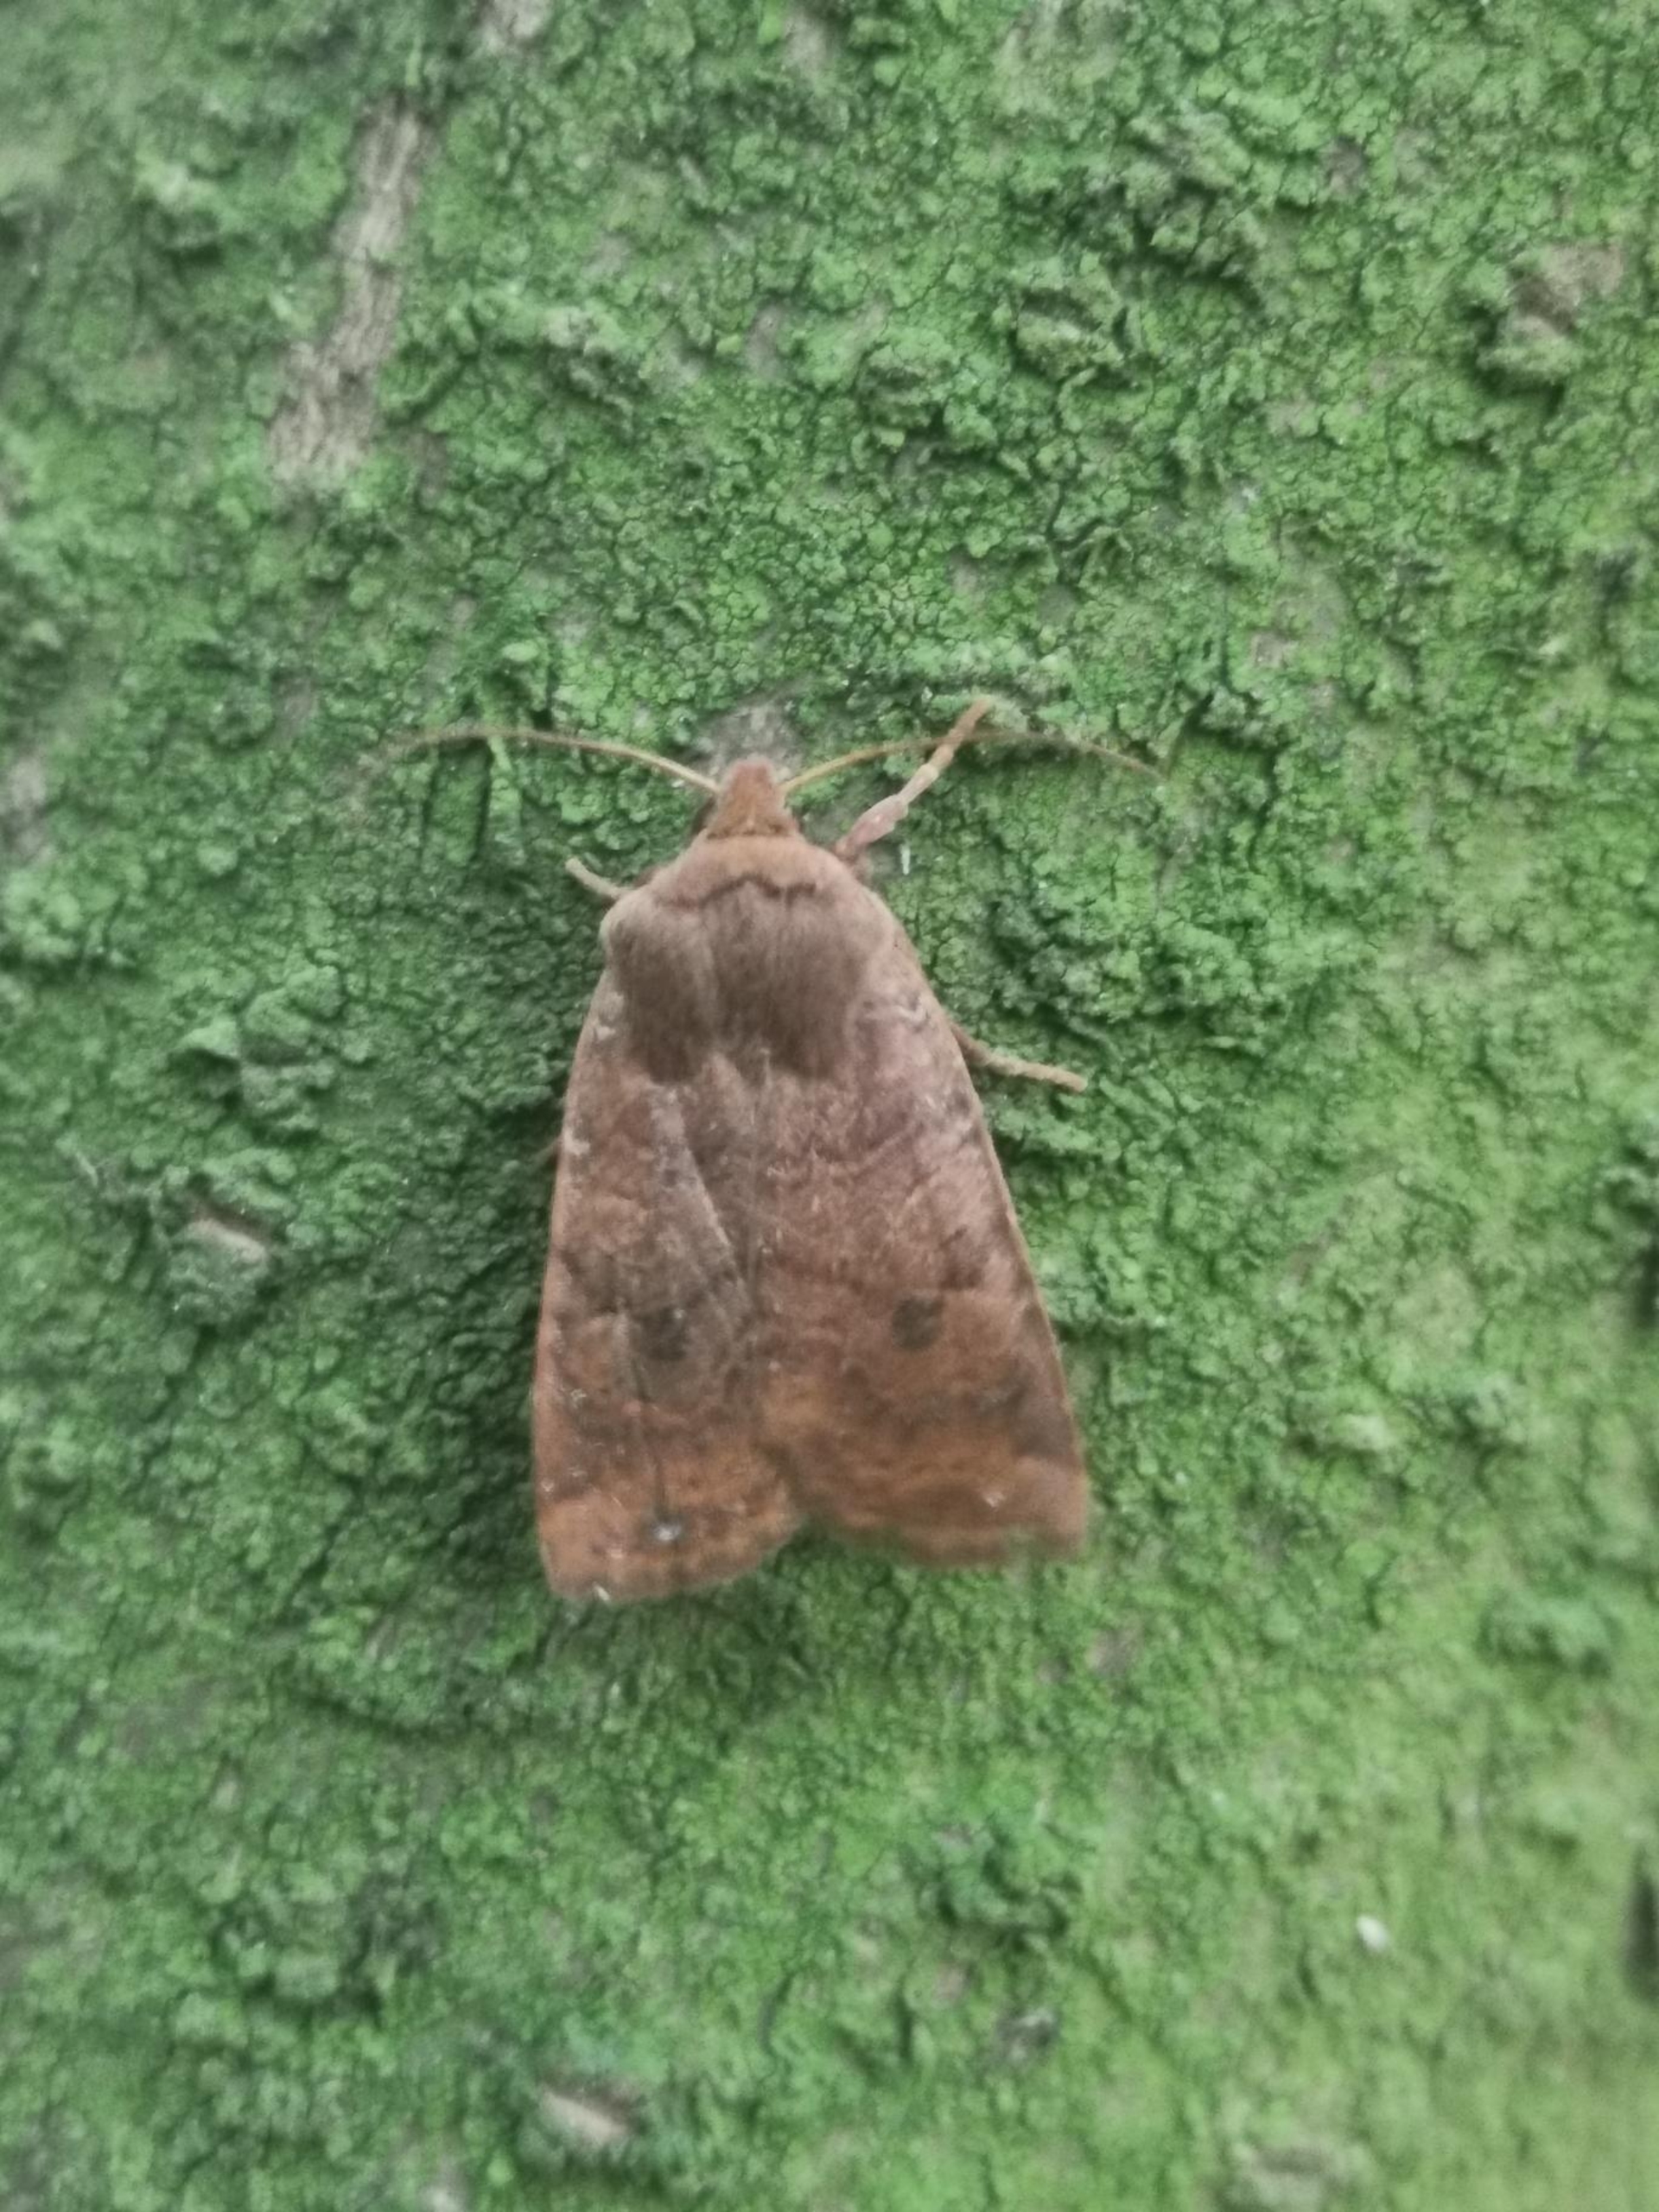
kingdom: Animalia
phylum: Arthropoda
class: Insecta
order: Lepidoptera
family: Noctuidae
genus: Conistra
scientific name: Conistra vaccinii
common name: Blåbærugle
